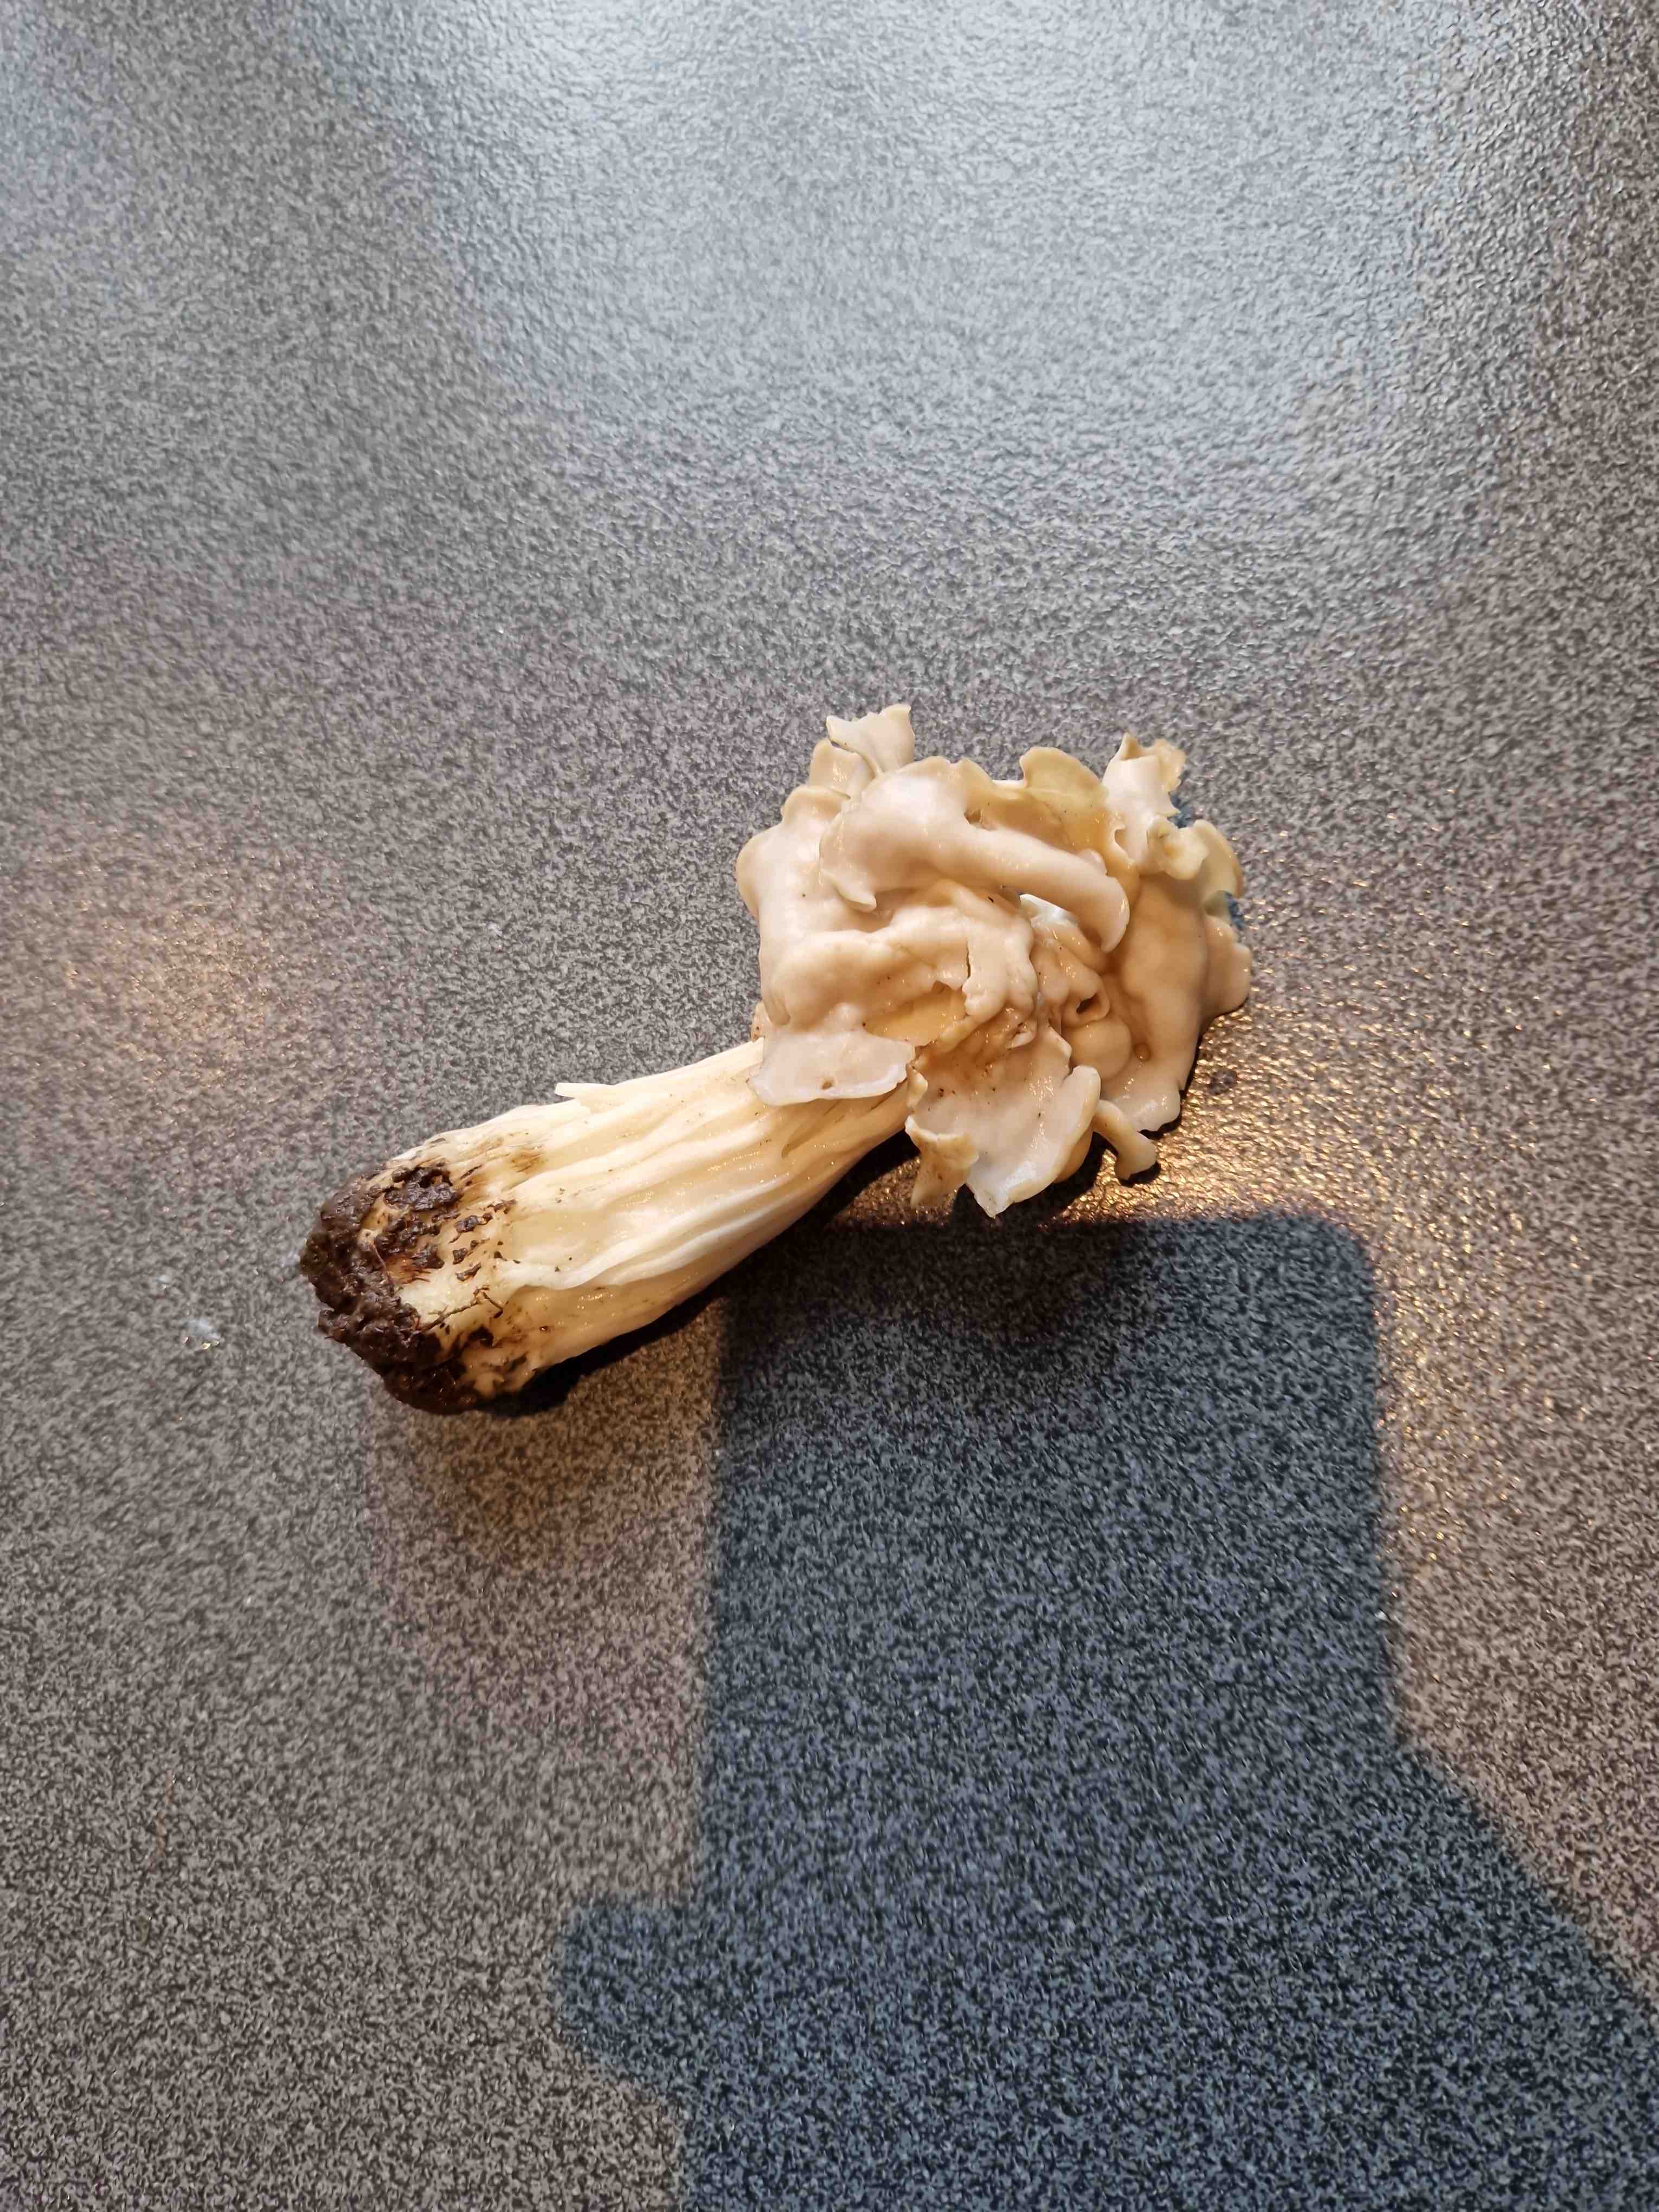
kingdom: Fungi
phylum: Ascomycota
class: Pezizomycetes
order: Pezizales
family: Helvellaceae
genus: Helvella
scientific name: Helvella crispa
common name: kruset foldhat
